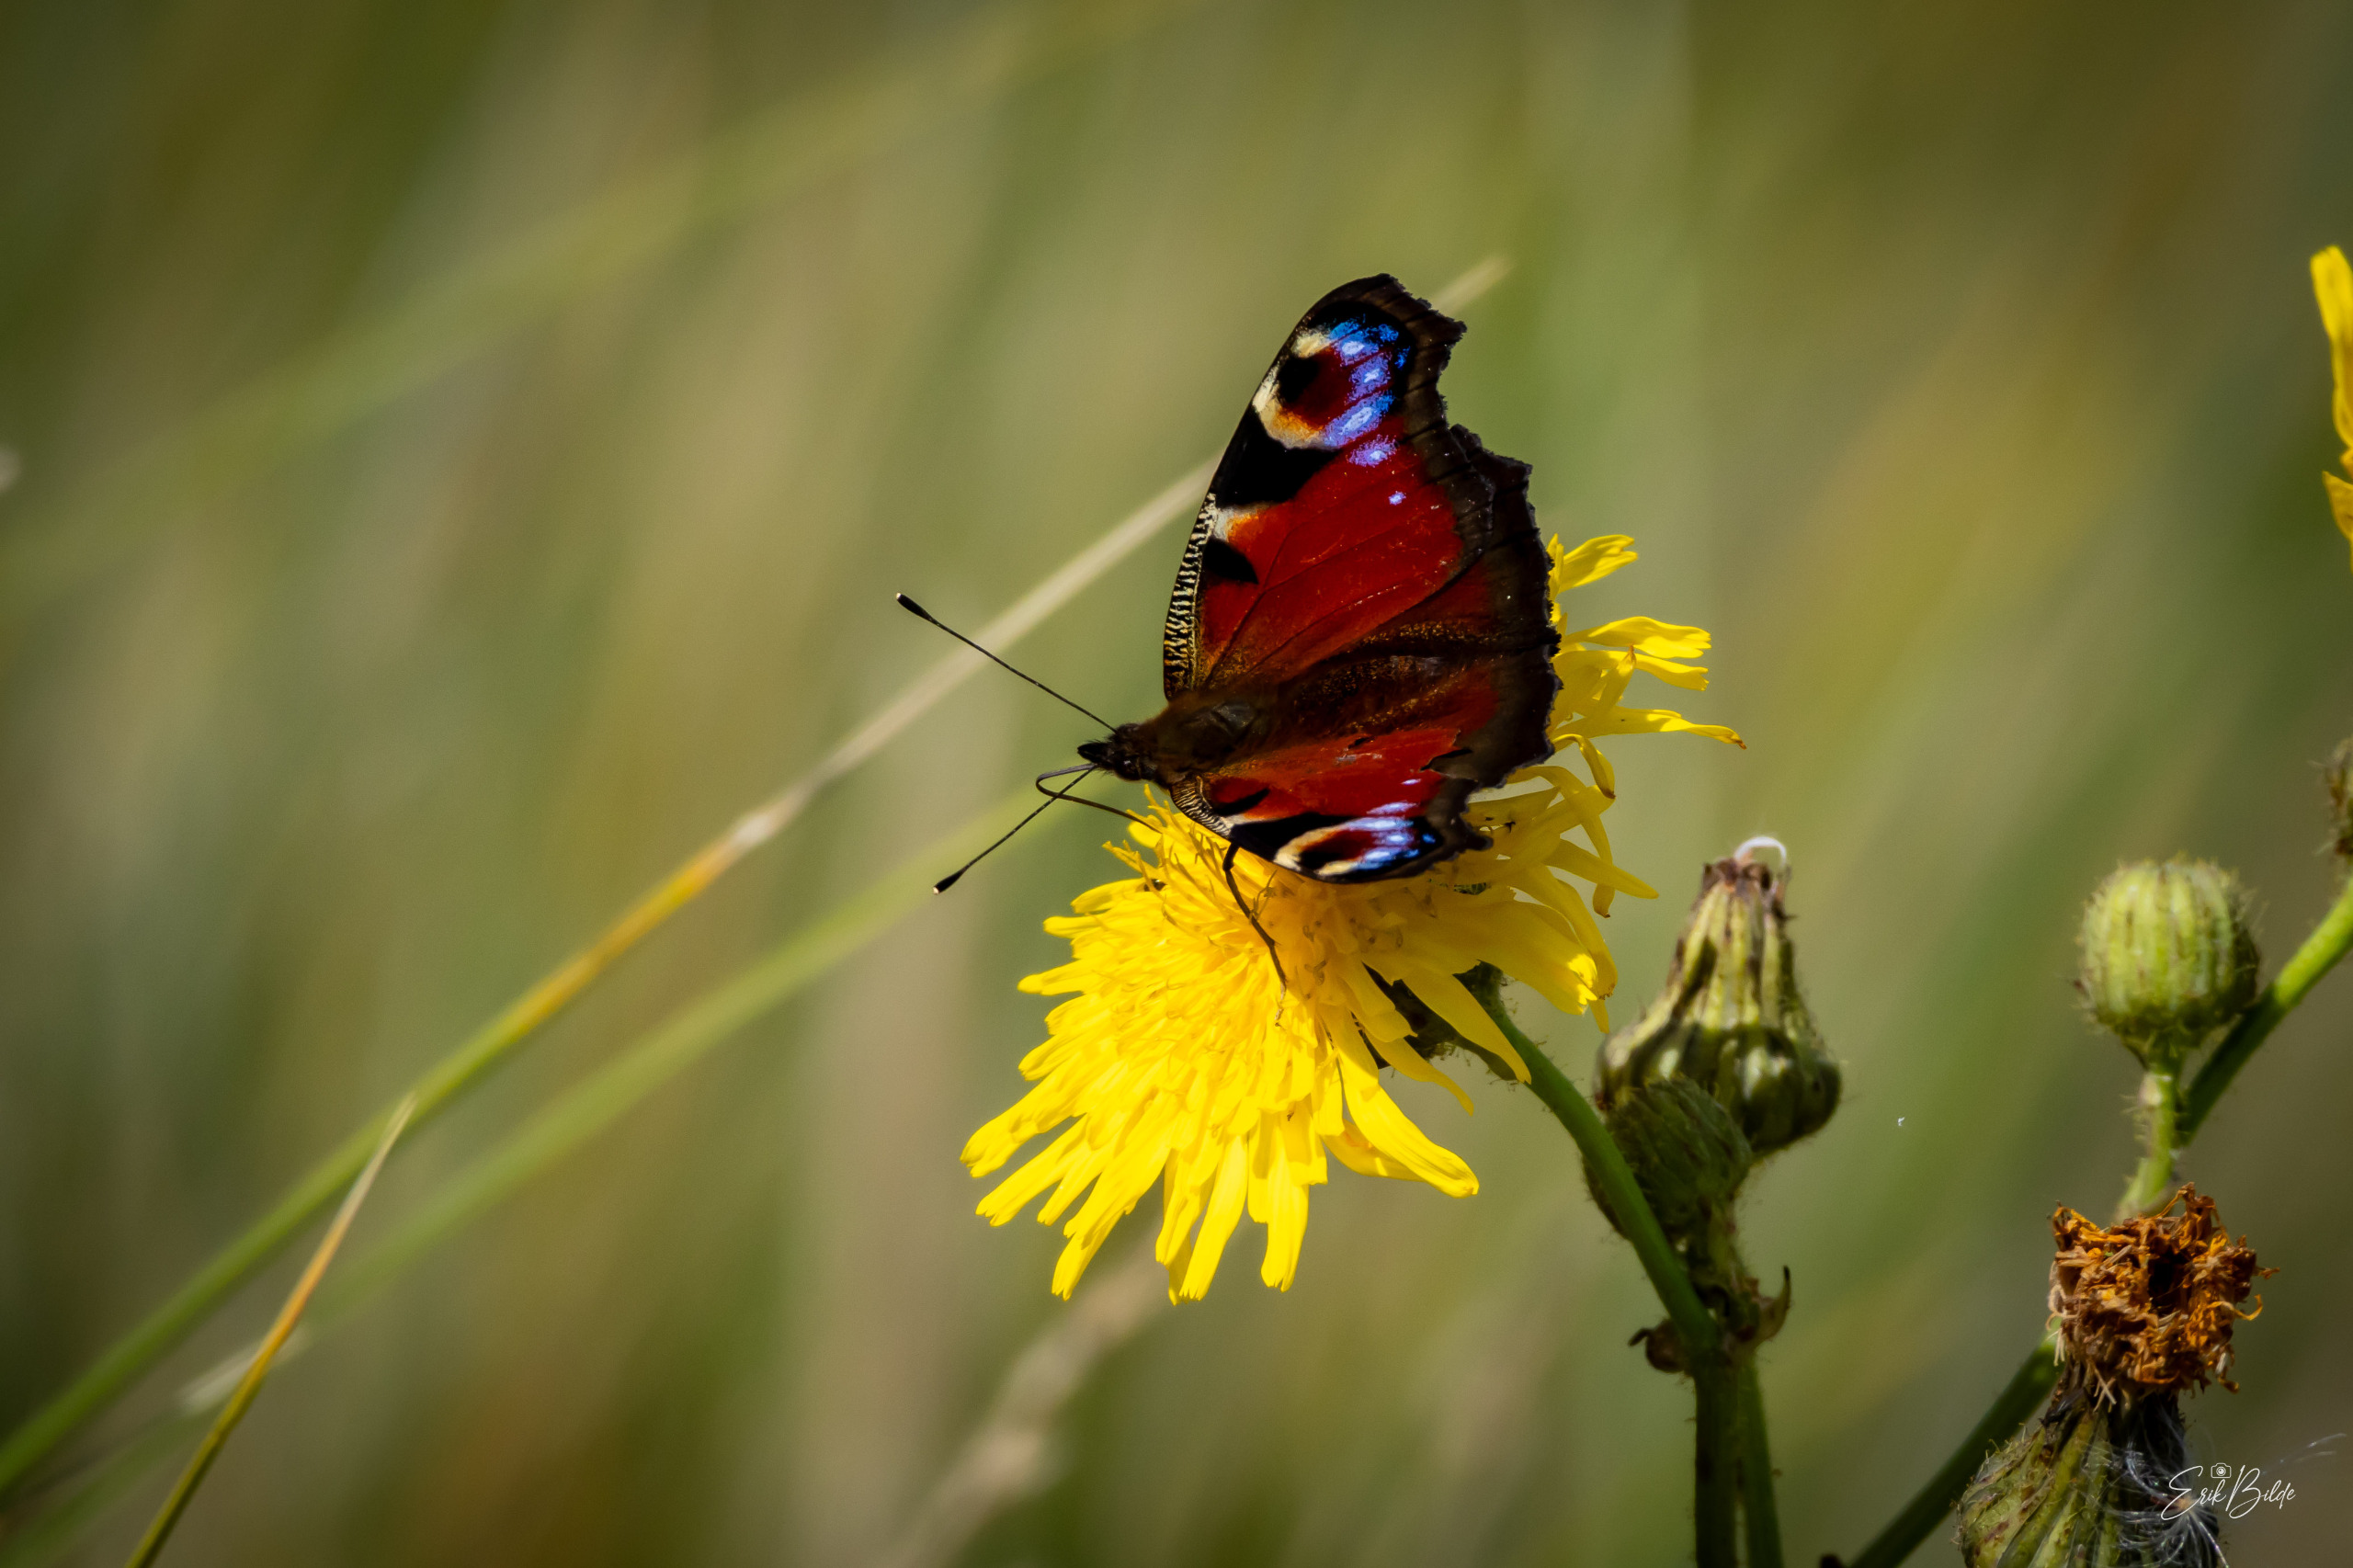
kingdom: Animalia
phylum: Arthropoda
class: Insecta
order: Lepidoptera
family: Nymphalidae
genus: Aglais
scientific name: Aglais io
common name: Dagpåfugleøje
